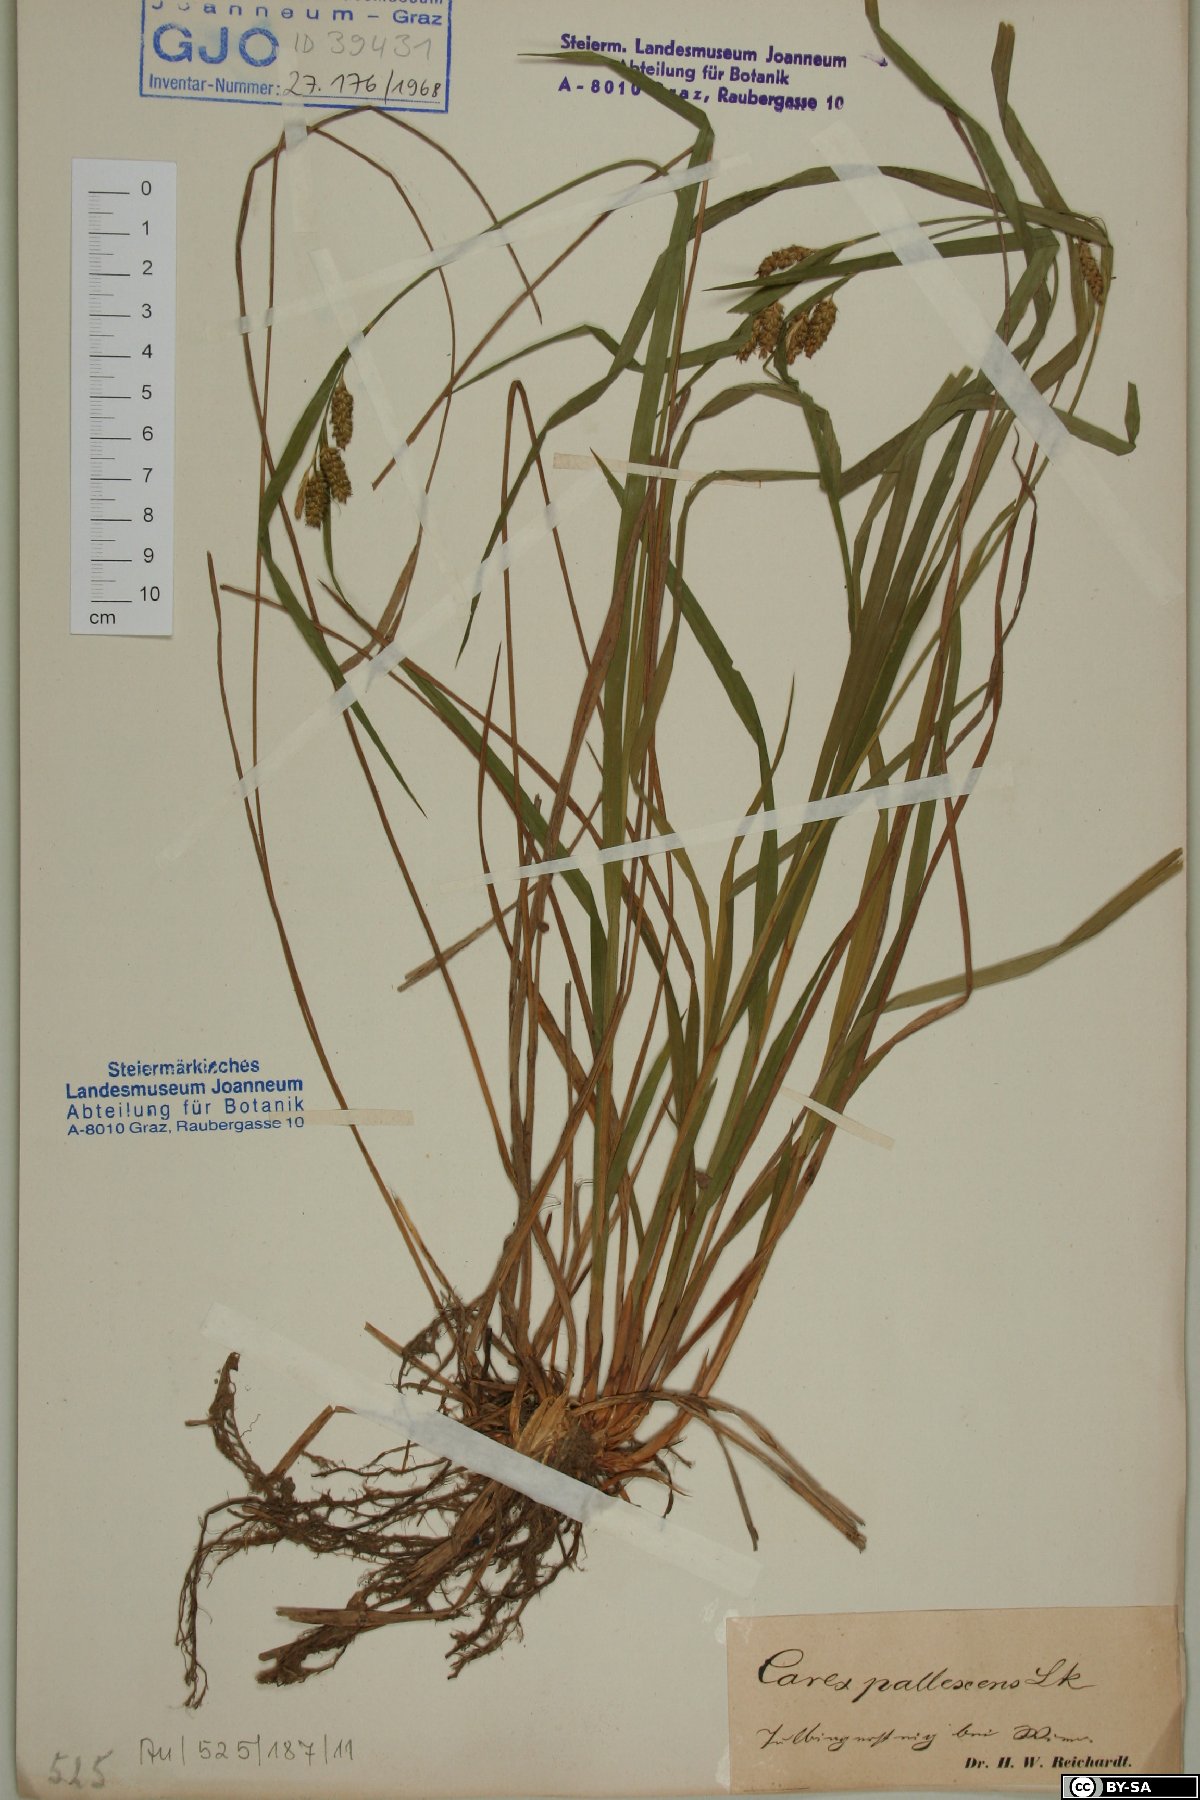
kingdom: Plantae
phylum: Tracheophyta
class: Liliopsida
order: Poales
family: Cyperaceae
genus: Carex
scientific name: Carex pallescens
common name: Pale sedge
